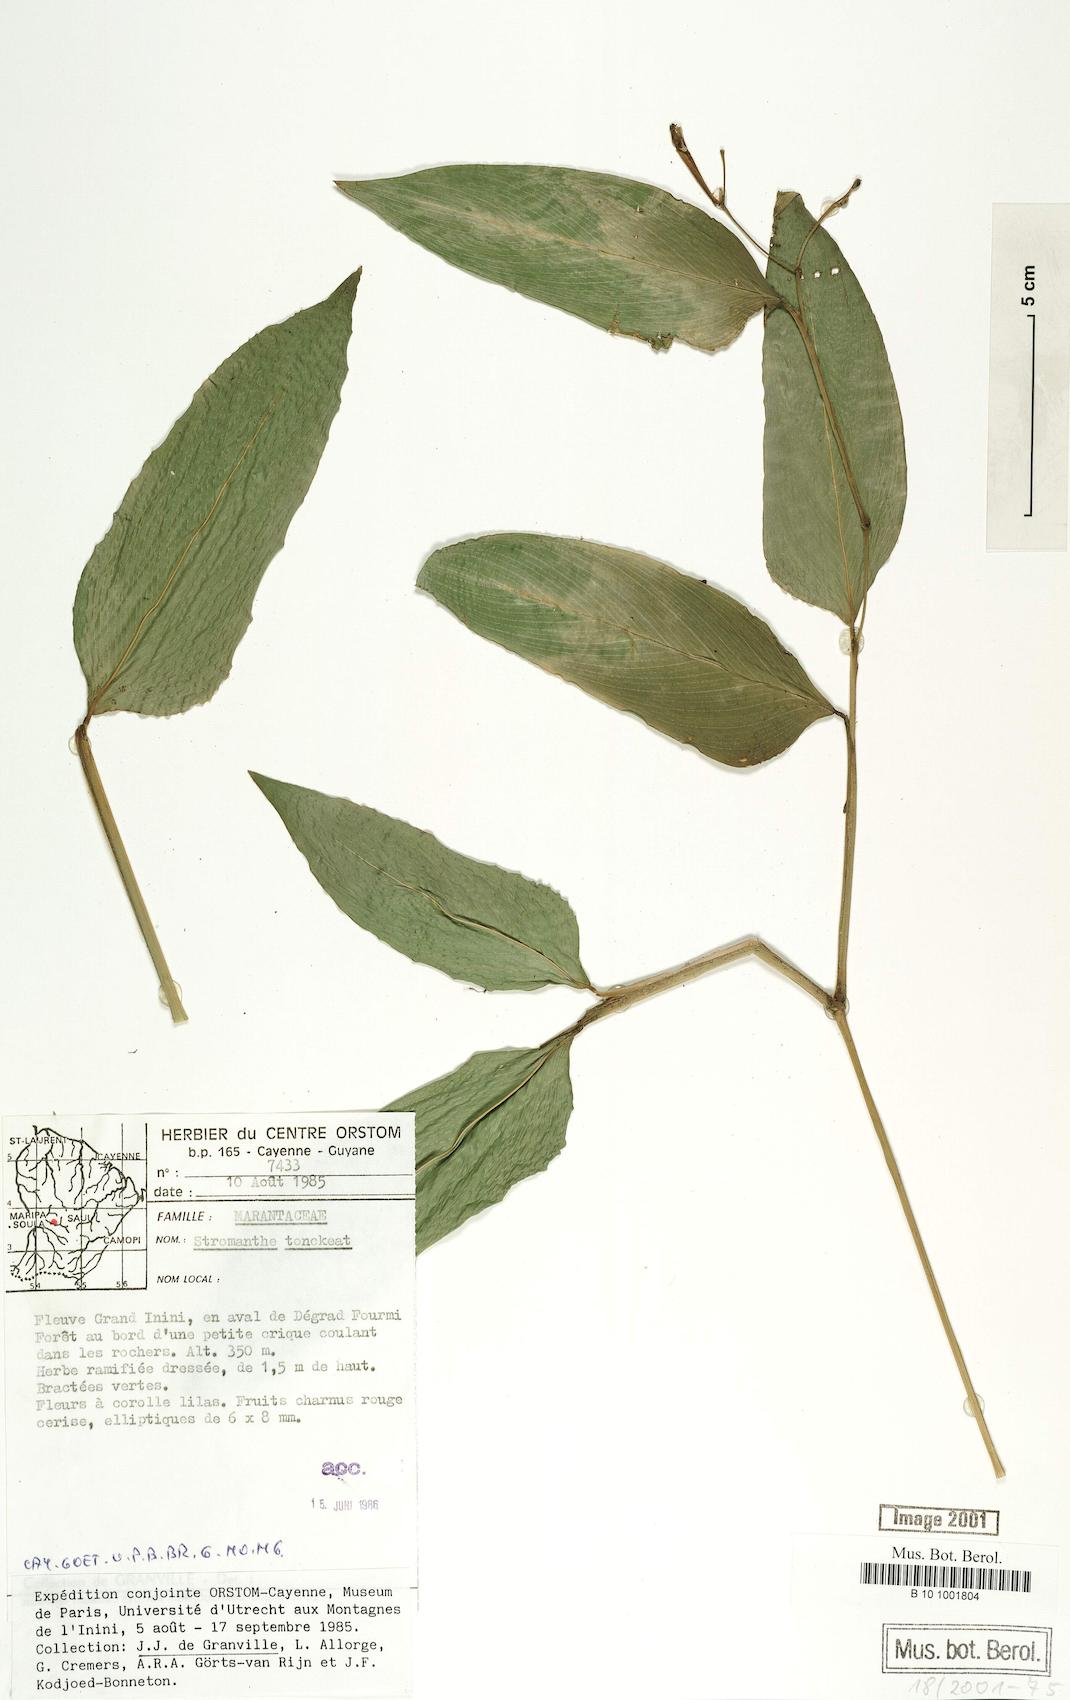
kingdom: Plantae
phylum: Tracheophyta
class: Liliopsida
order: Zingiberales
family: Marantaceae
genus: Stromanthe
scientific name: Stromanthe tonckat
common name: Stromanthe
